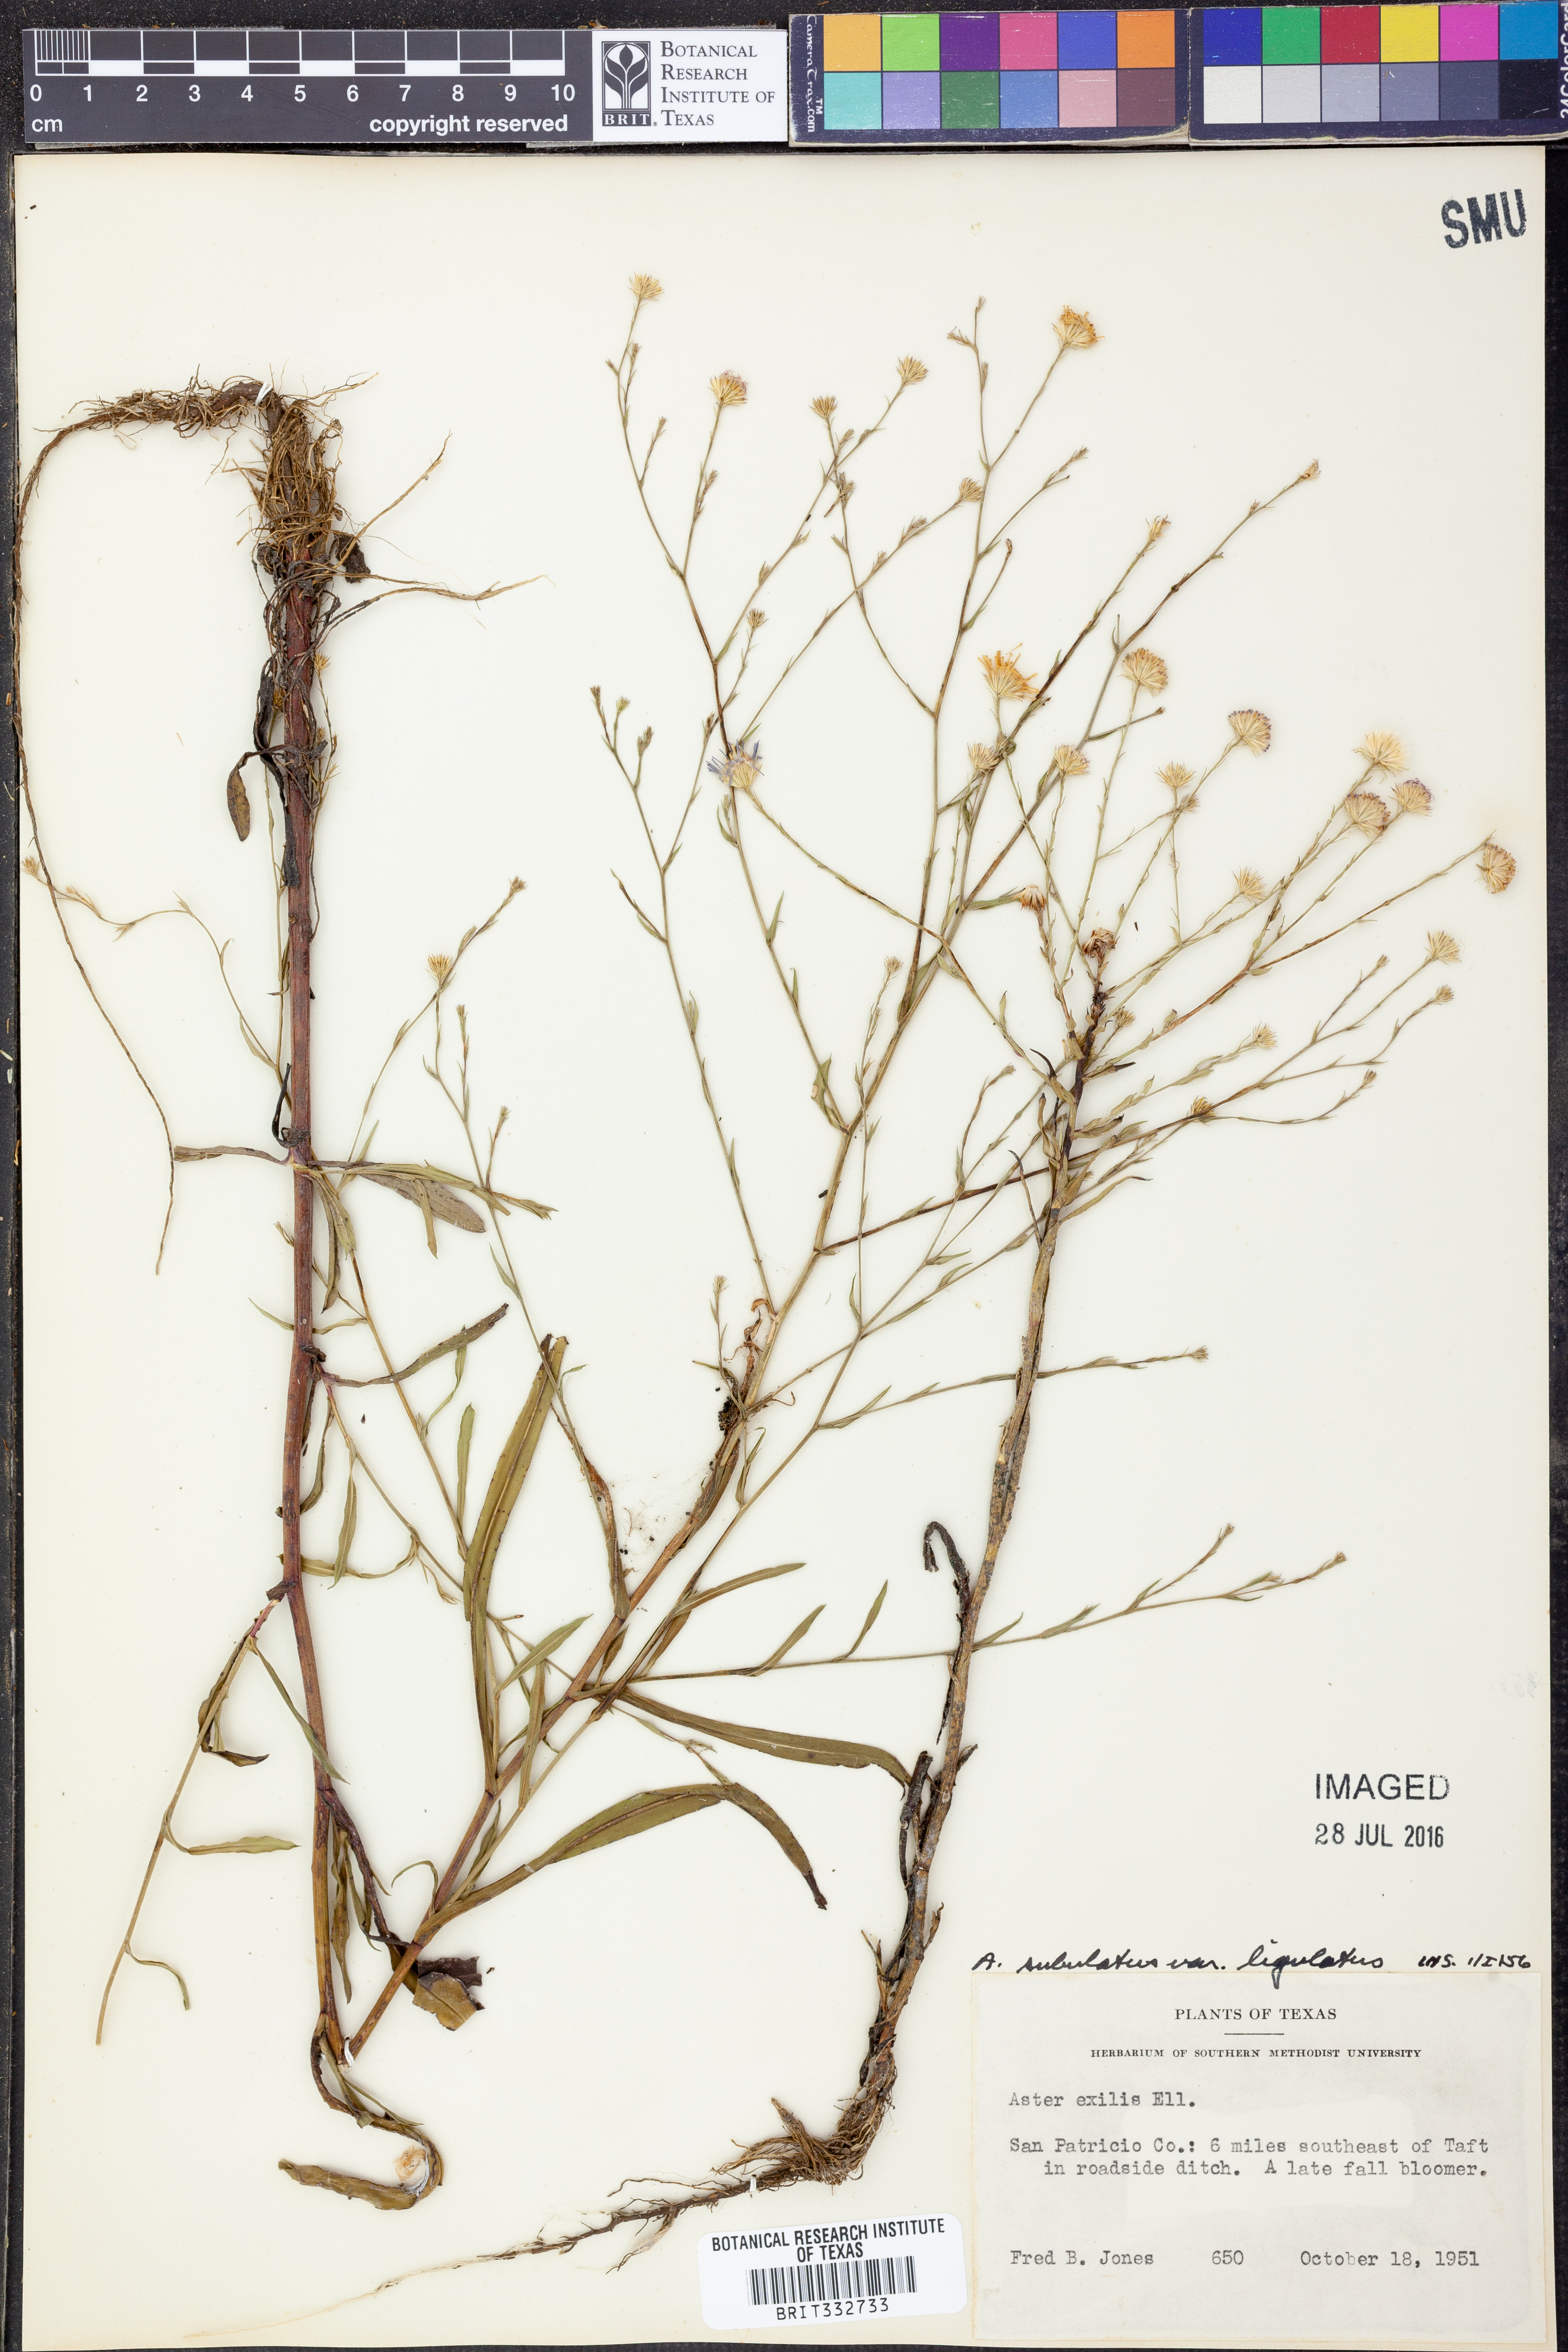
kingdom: Plantae
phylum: Tracheophyta
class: Magnoliopsida
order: Asterales
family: Asteraceae
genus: Symphyotrichum
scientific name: Symphyotrichum divaricatum
